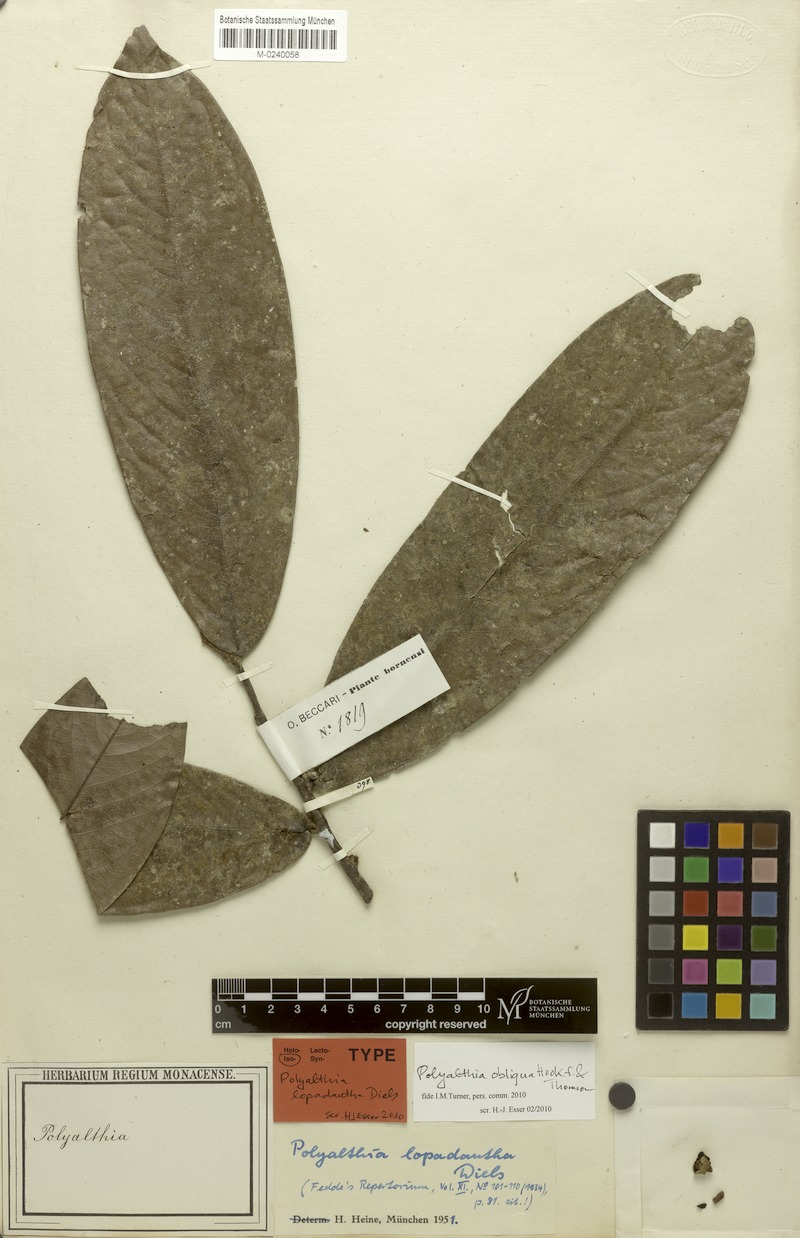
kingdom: Plantae
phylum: Tracheophyta
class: Magnoliopsida
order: Magnoliales
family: Annonaceae
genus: Polyalthia
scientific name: Polyalthia obliqua
